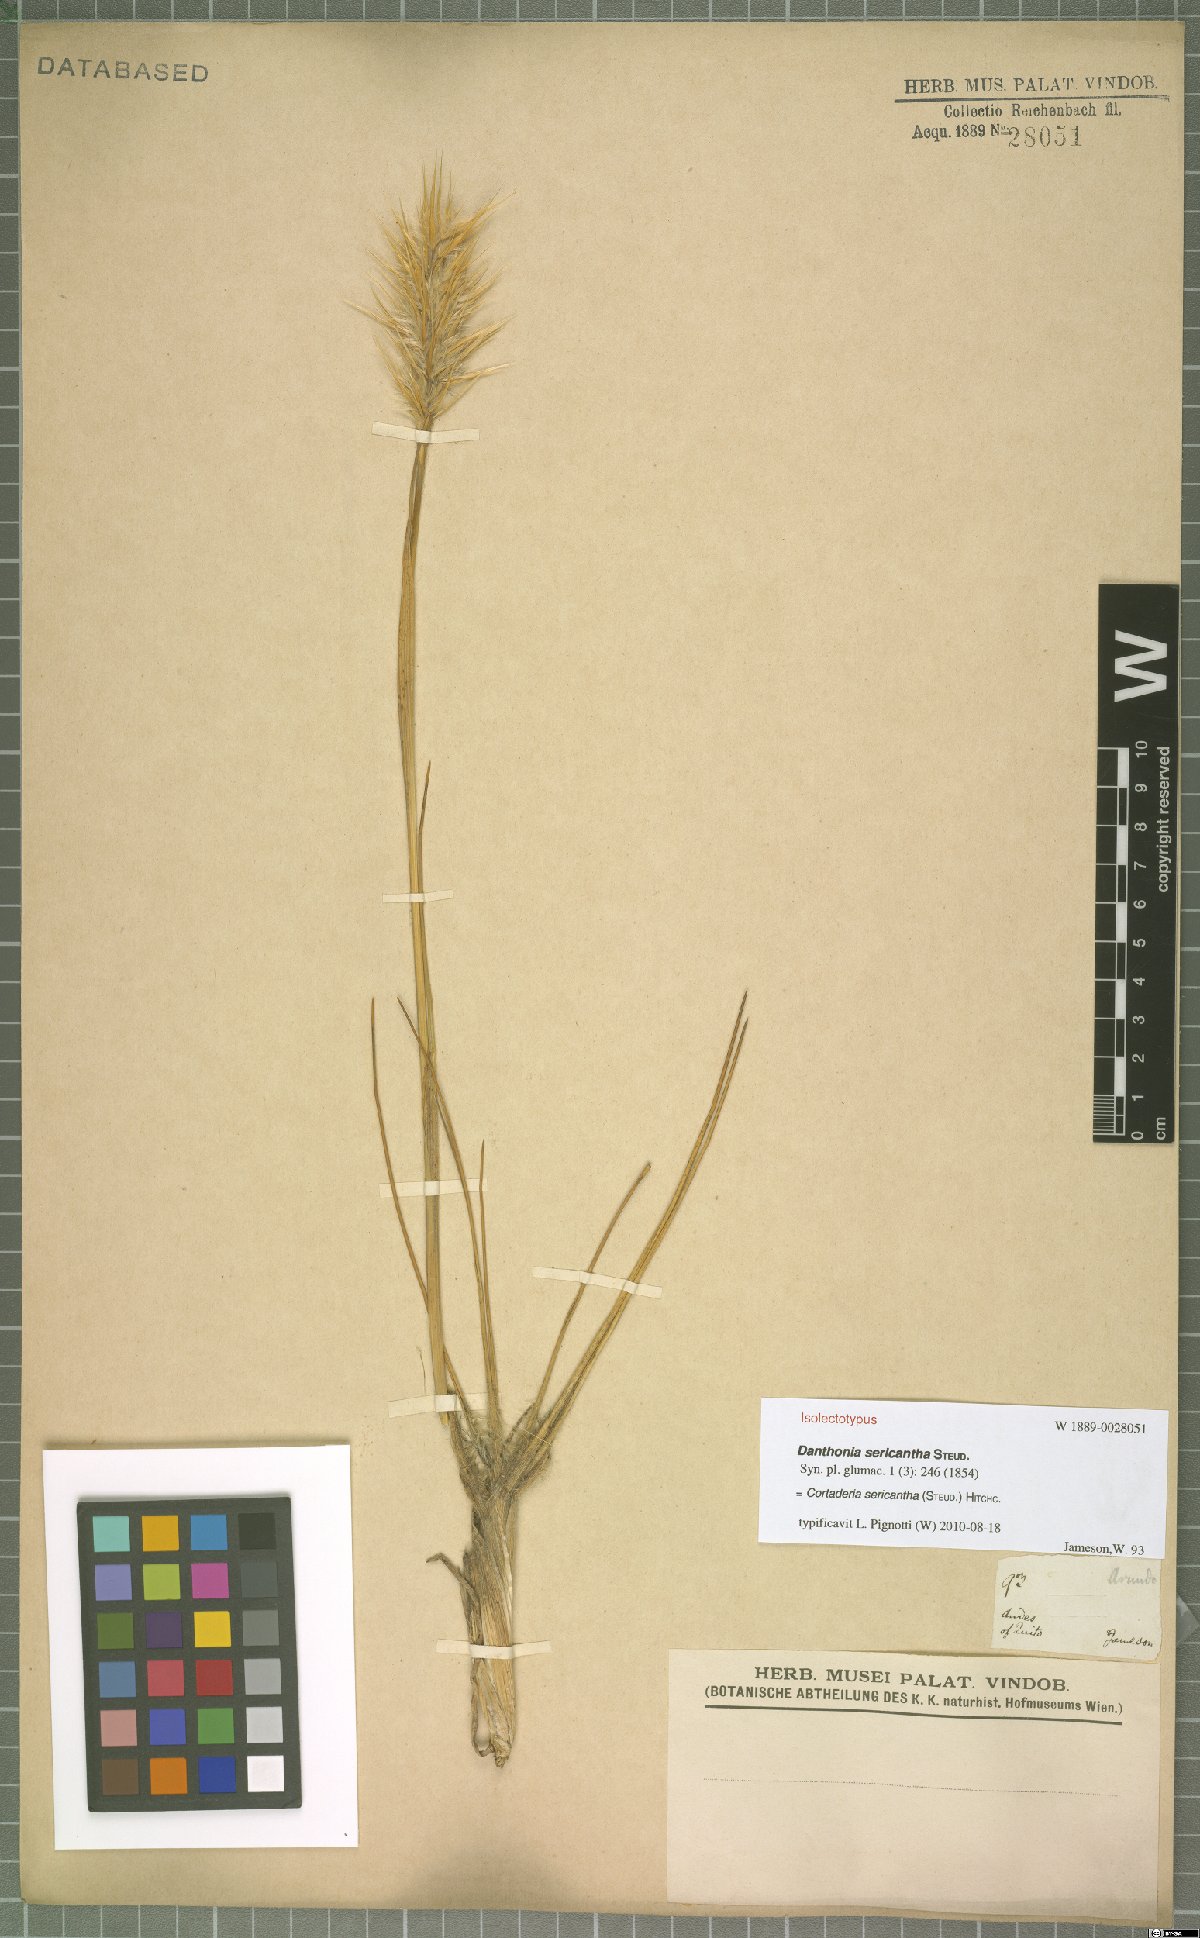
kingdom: Plantae
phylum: Tracheophyta
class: Liliopsida
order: Poales
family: Poaceae
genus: Cortaderia
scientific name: Cortaderia sericantha
